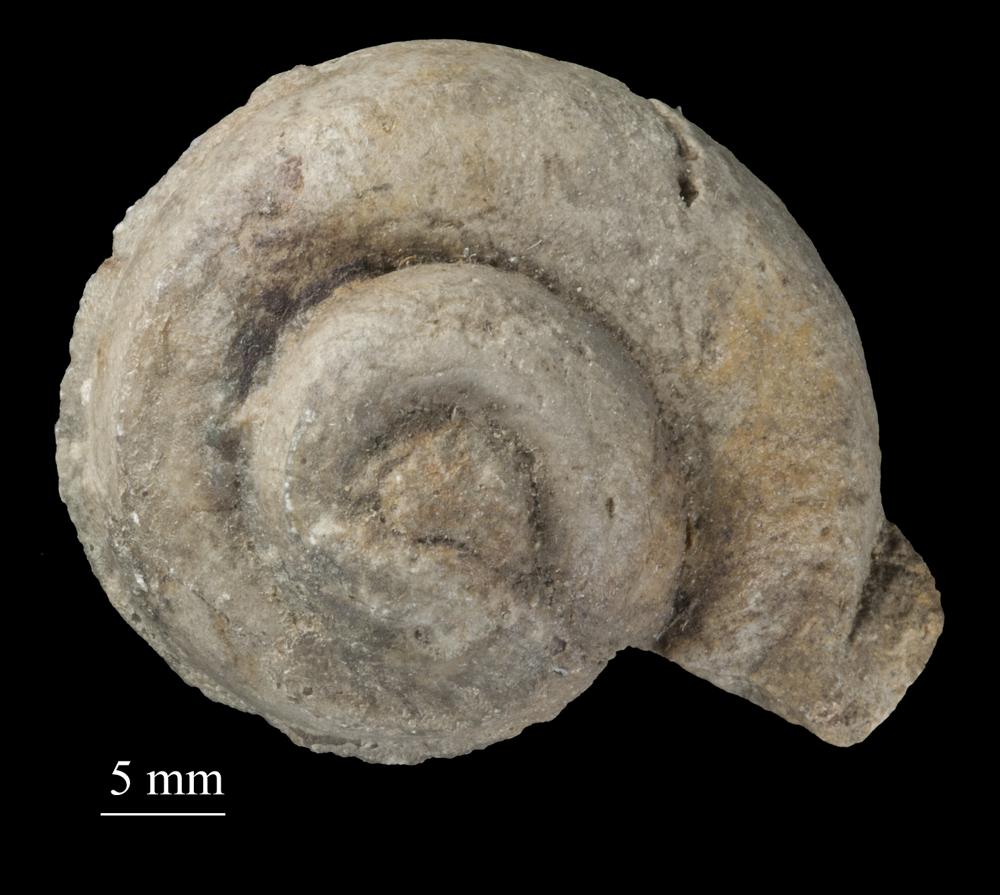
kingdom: Animalia
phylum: Mollusca
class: Gastropoda
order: Pleurotomariida
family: Phymatopleuridae
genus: Worthenia
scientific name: Worthenia
